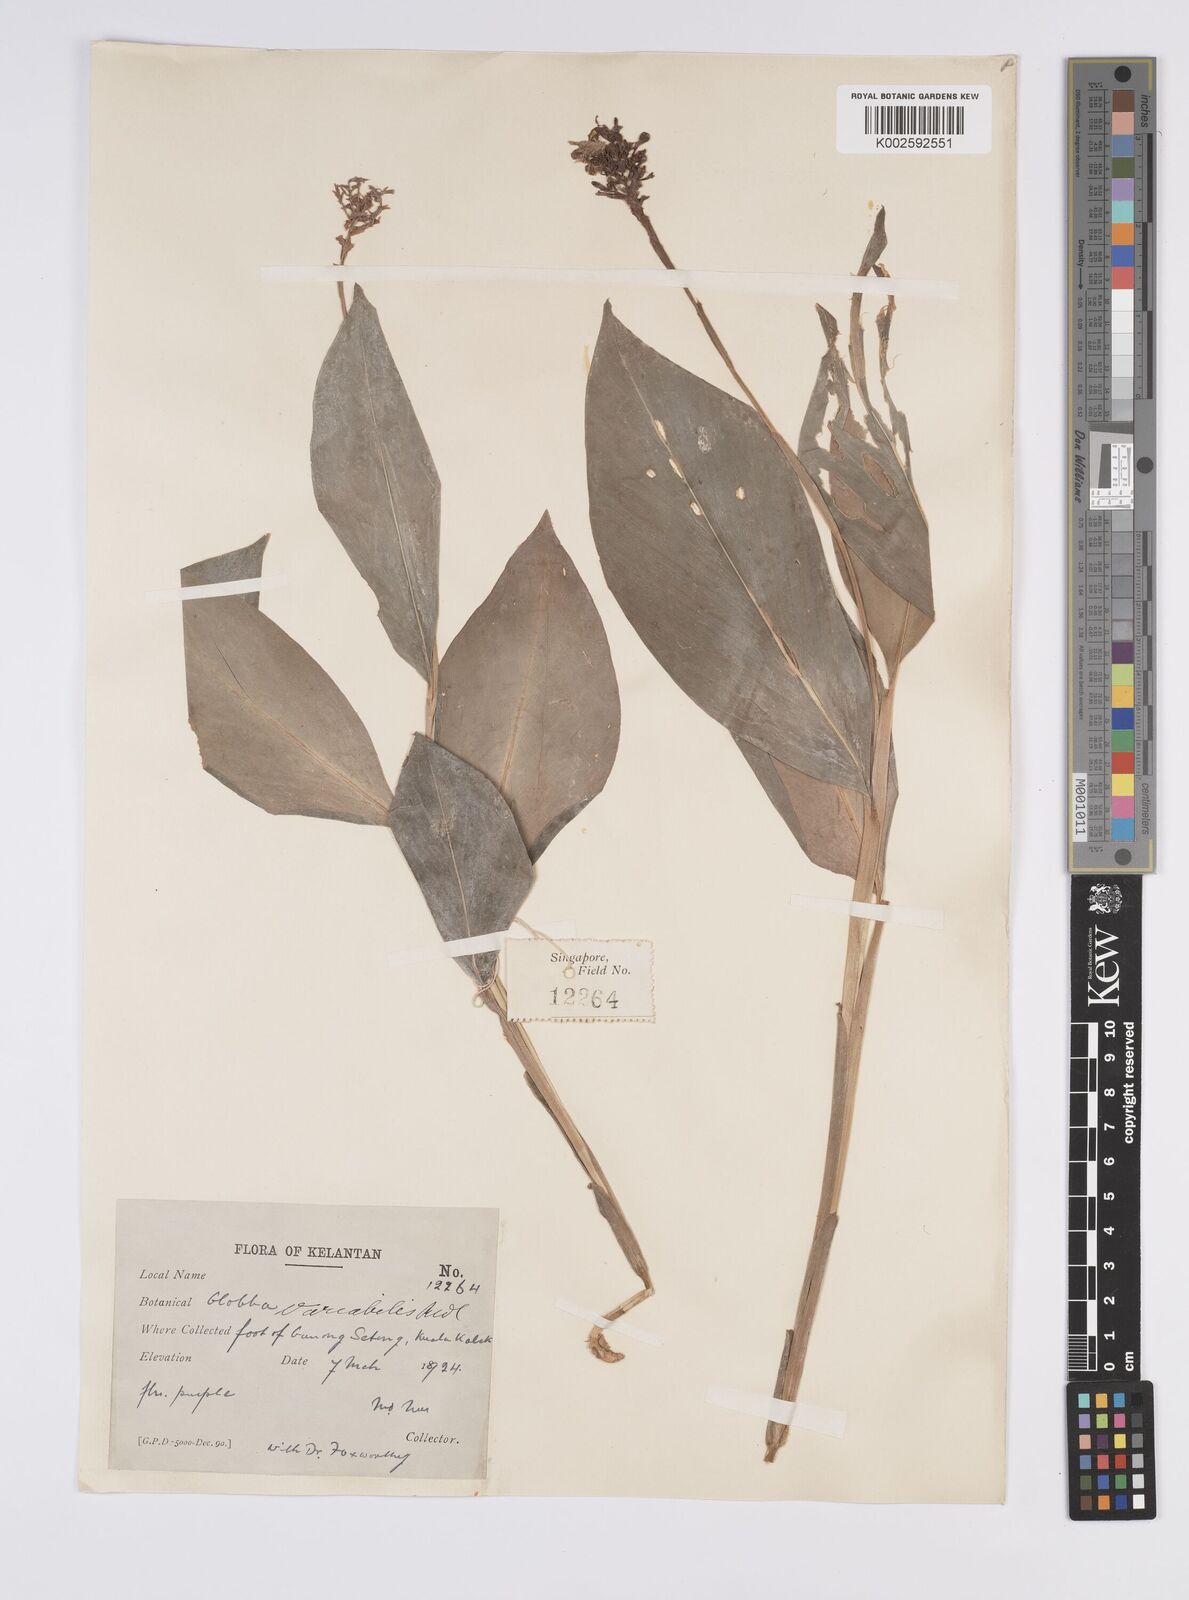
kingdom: Plantae
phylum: Tracheophyta
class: Liliopsida
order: Zingiberales
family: Zingiberaceae
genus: Globba
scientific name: Globba variabilis
